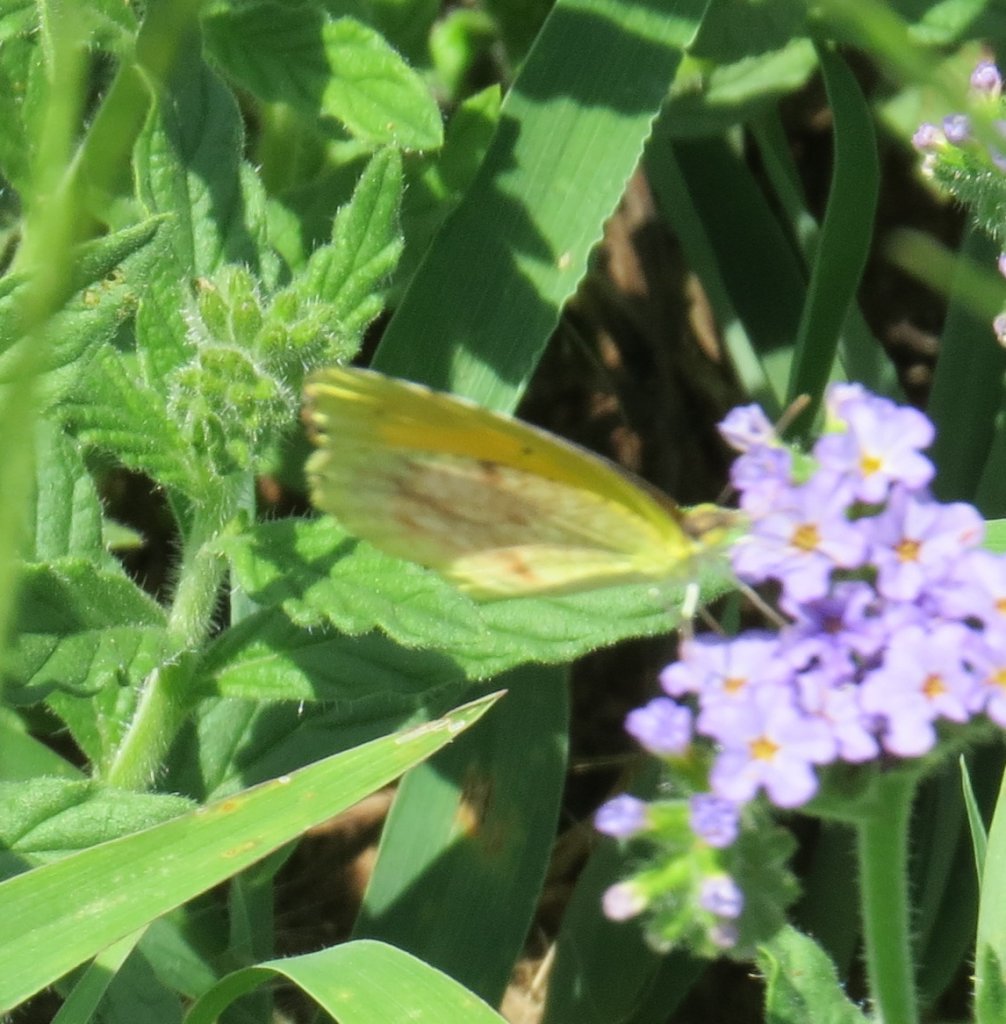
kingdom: Animalia
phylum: Arthropoda
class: Insecta
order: Lepidoptera
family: Pieridae
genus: Abaeis
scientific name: Abaeis nicippe
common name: Sleepy Orange
